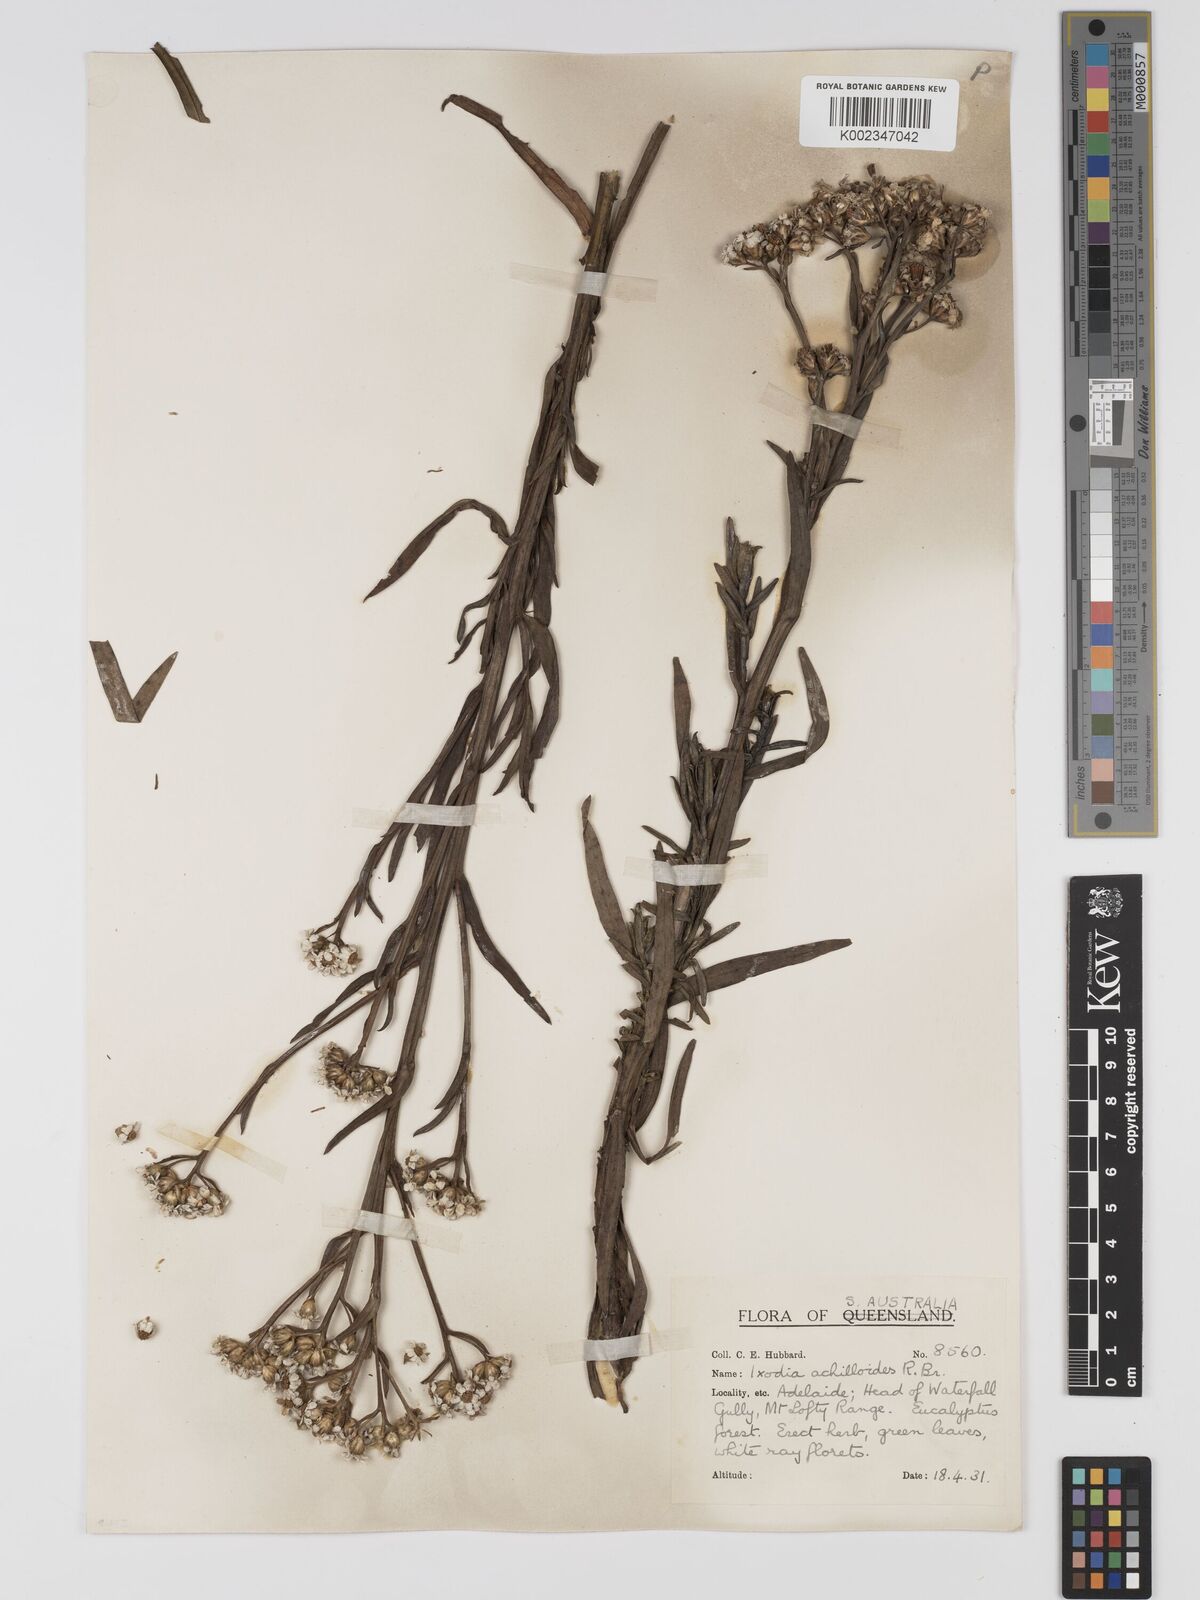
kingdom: Plantae
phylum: Tracheophyta
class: Magnoliopsida
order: Asterales
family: Asteraceae
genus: Ixodia
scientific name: Ixodia achilleoides
